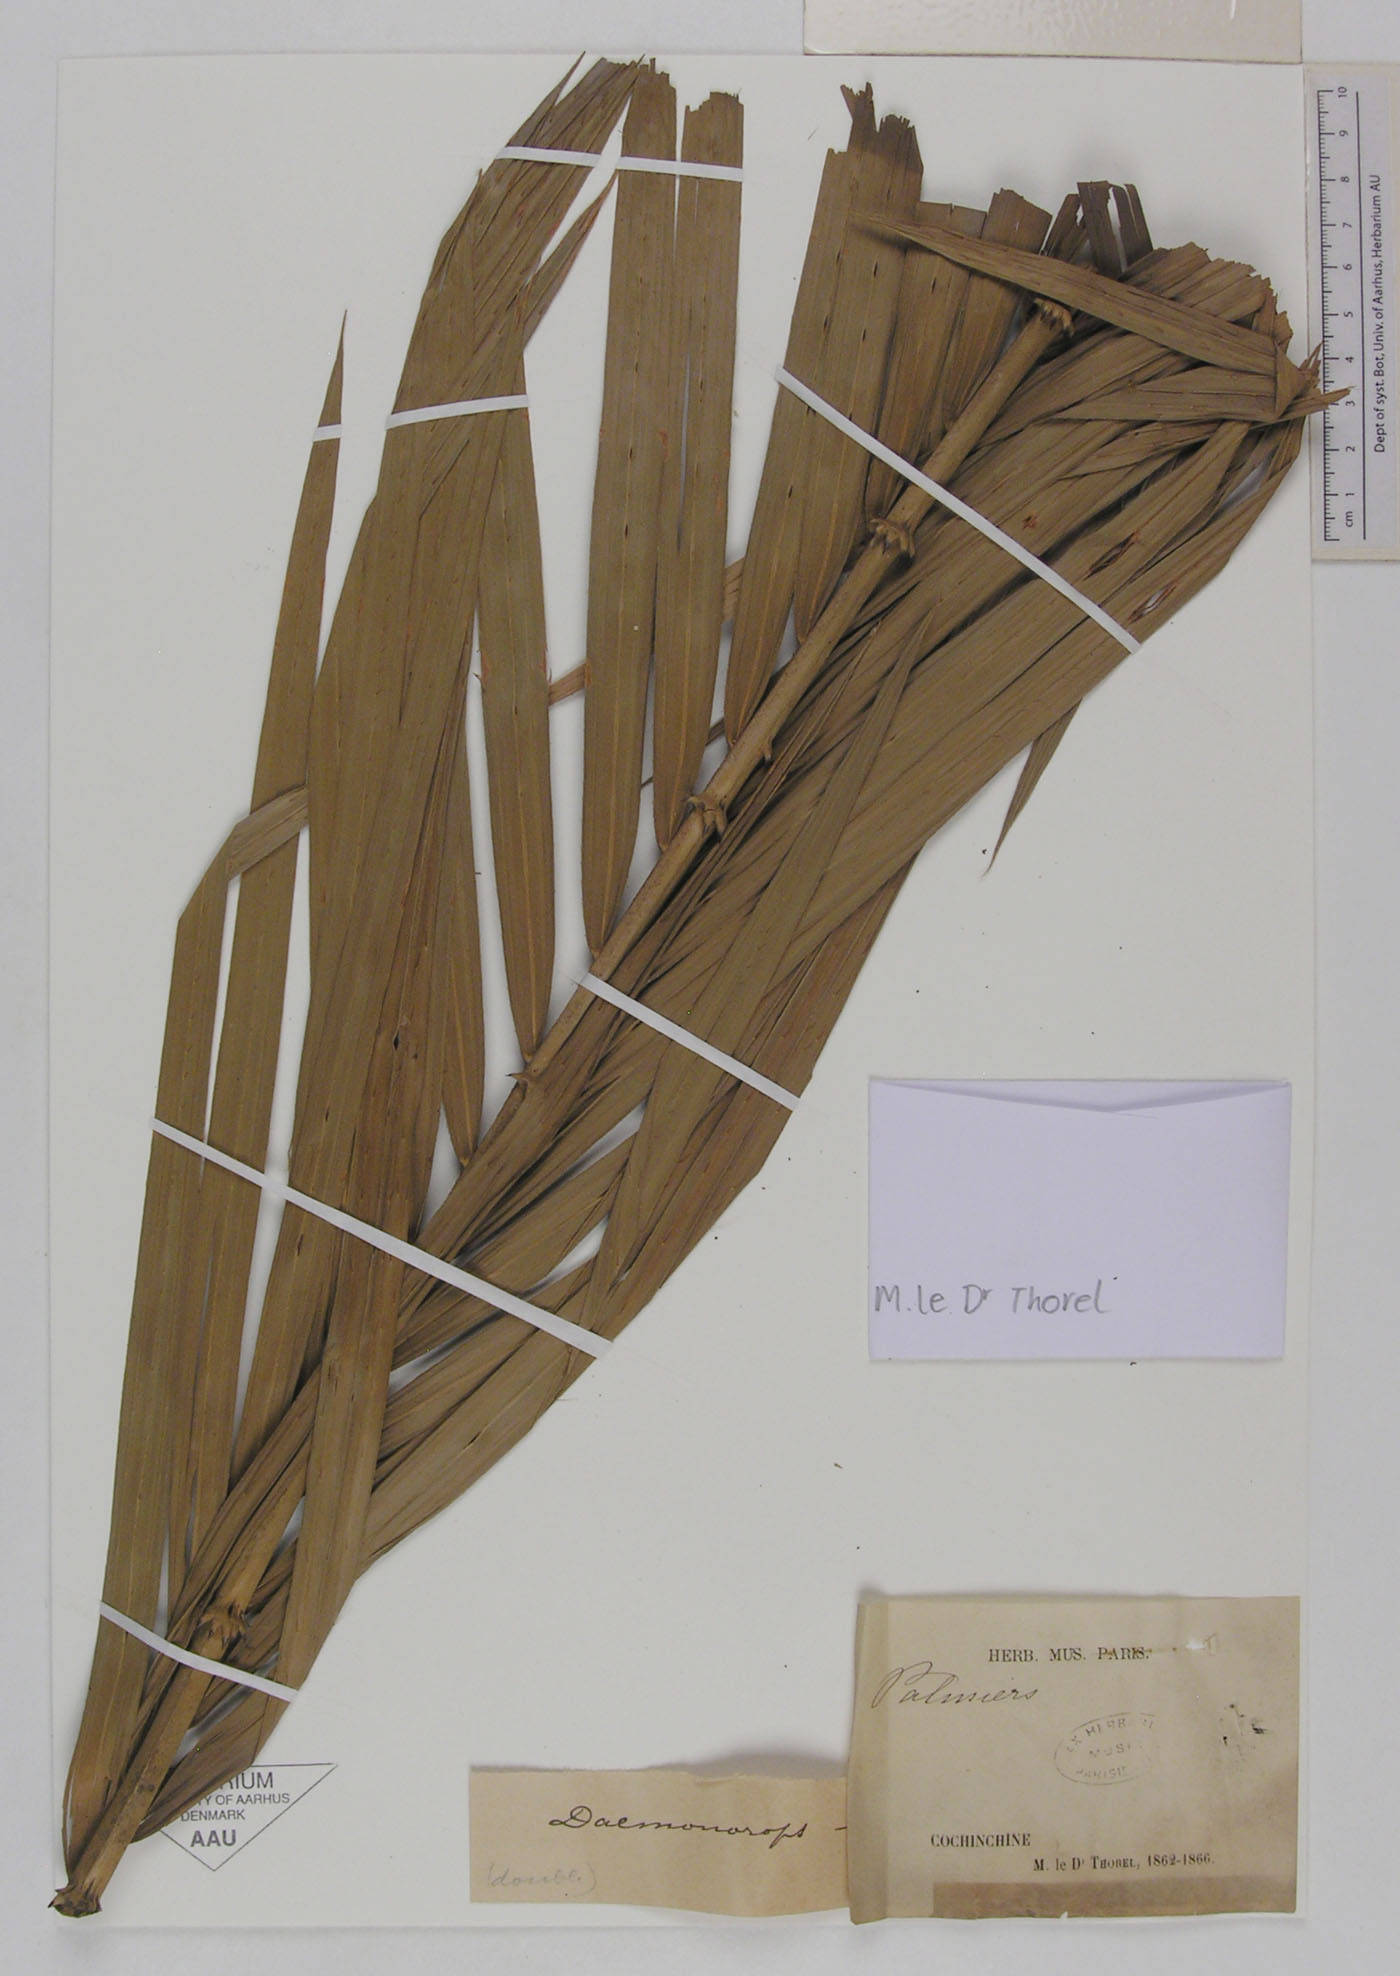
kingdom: Plantae
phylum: Tracheophyta
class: Liliopsida
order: Arecales
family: Arecaceae
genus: Daemonorops
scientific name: Daemonorops
